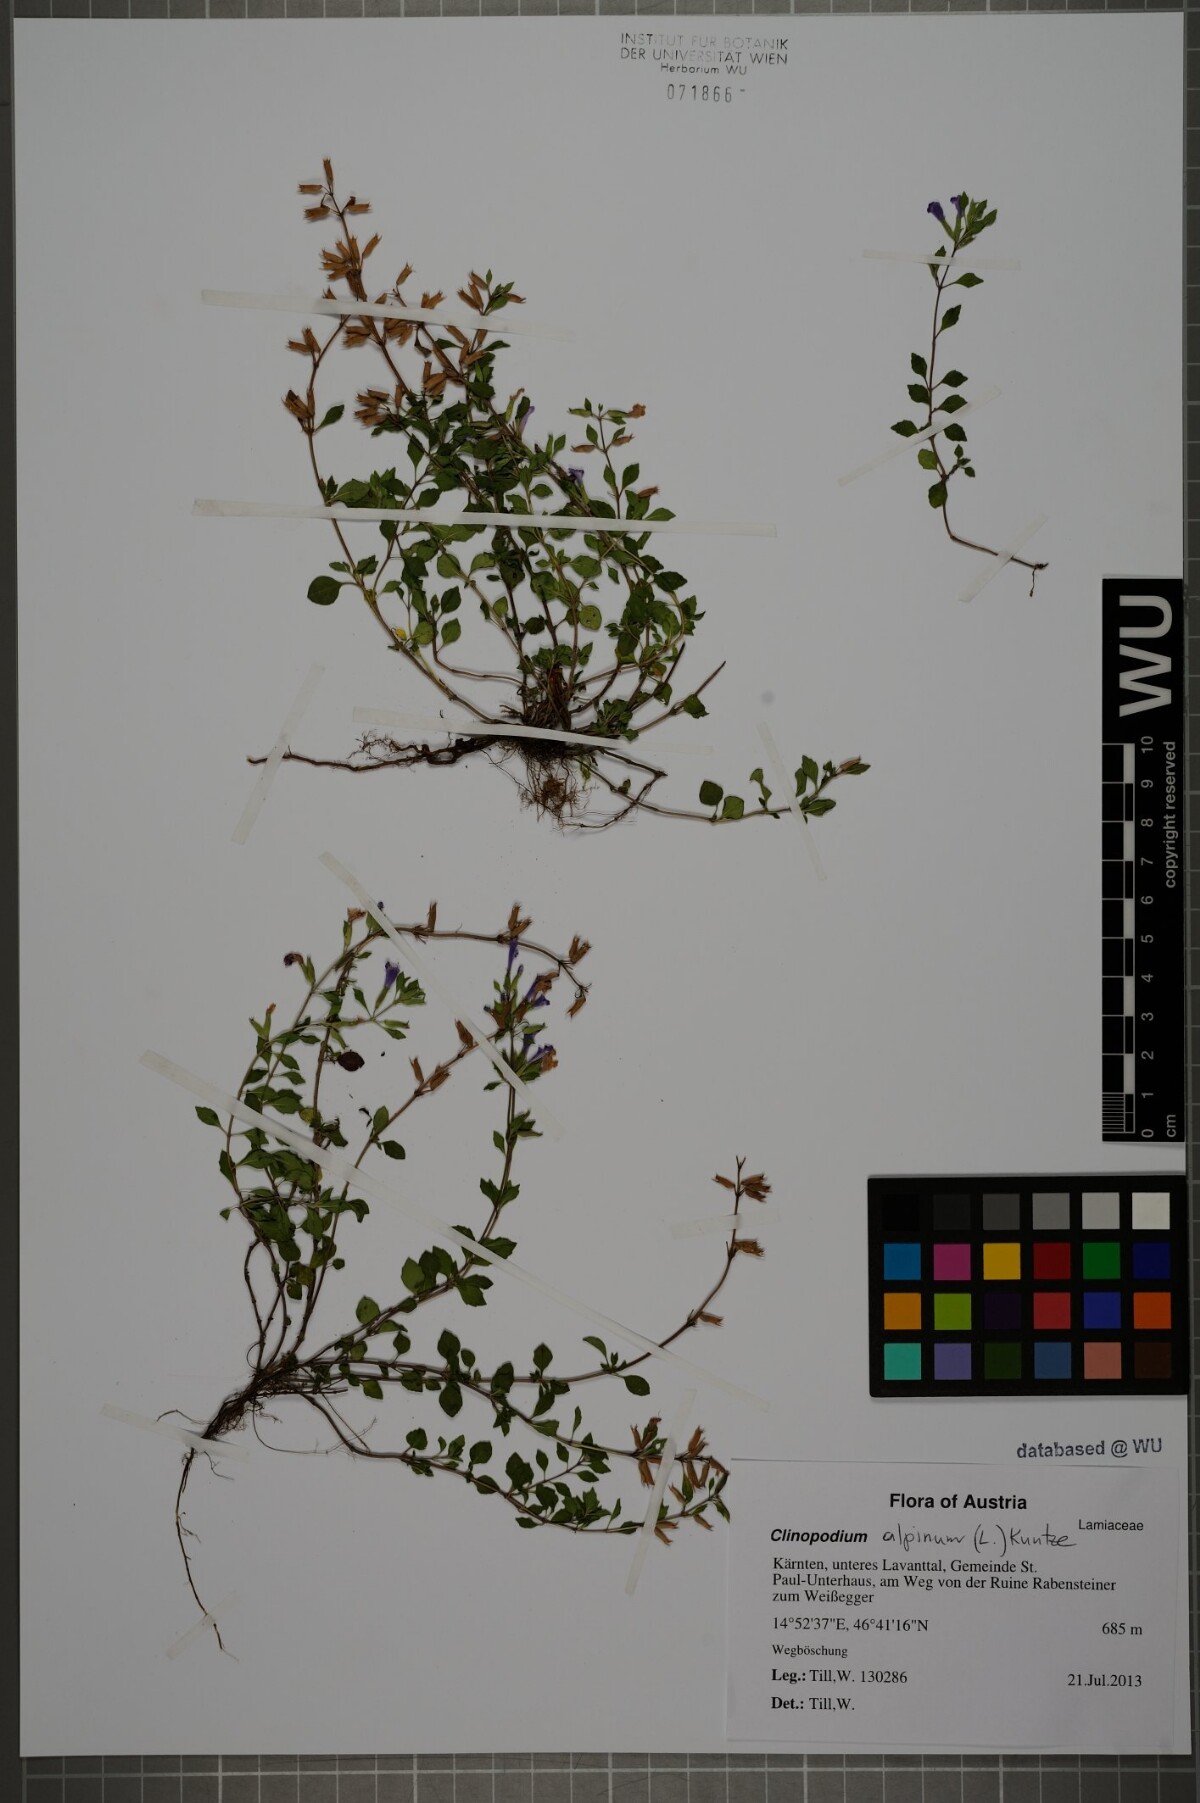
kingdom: Plantae
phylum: Tracheophyta
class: Magnoliopsida
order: Lamiales
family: Lamiaceae
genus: Clinopodium
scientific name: Clinopodium alpinum
